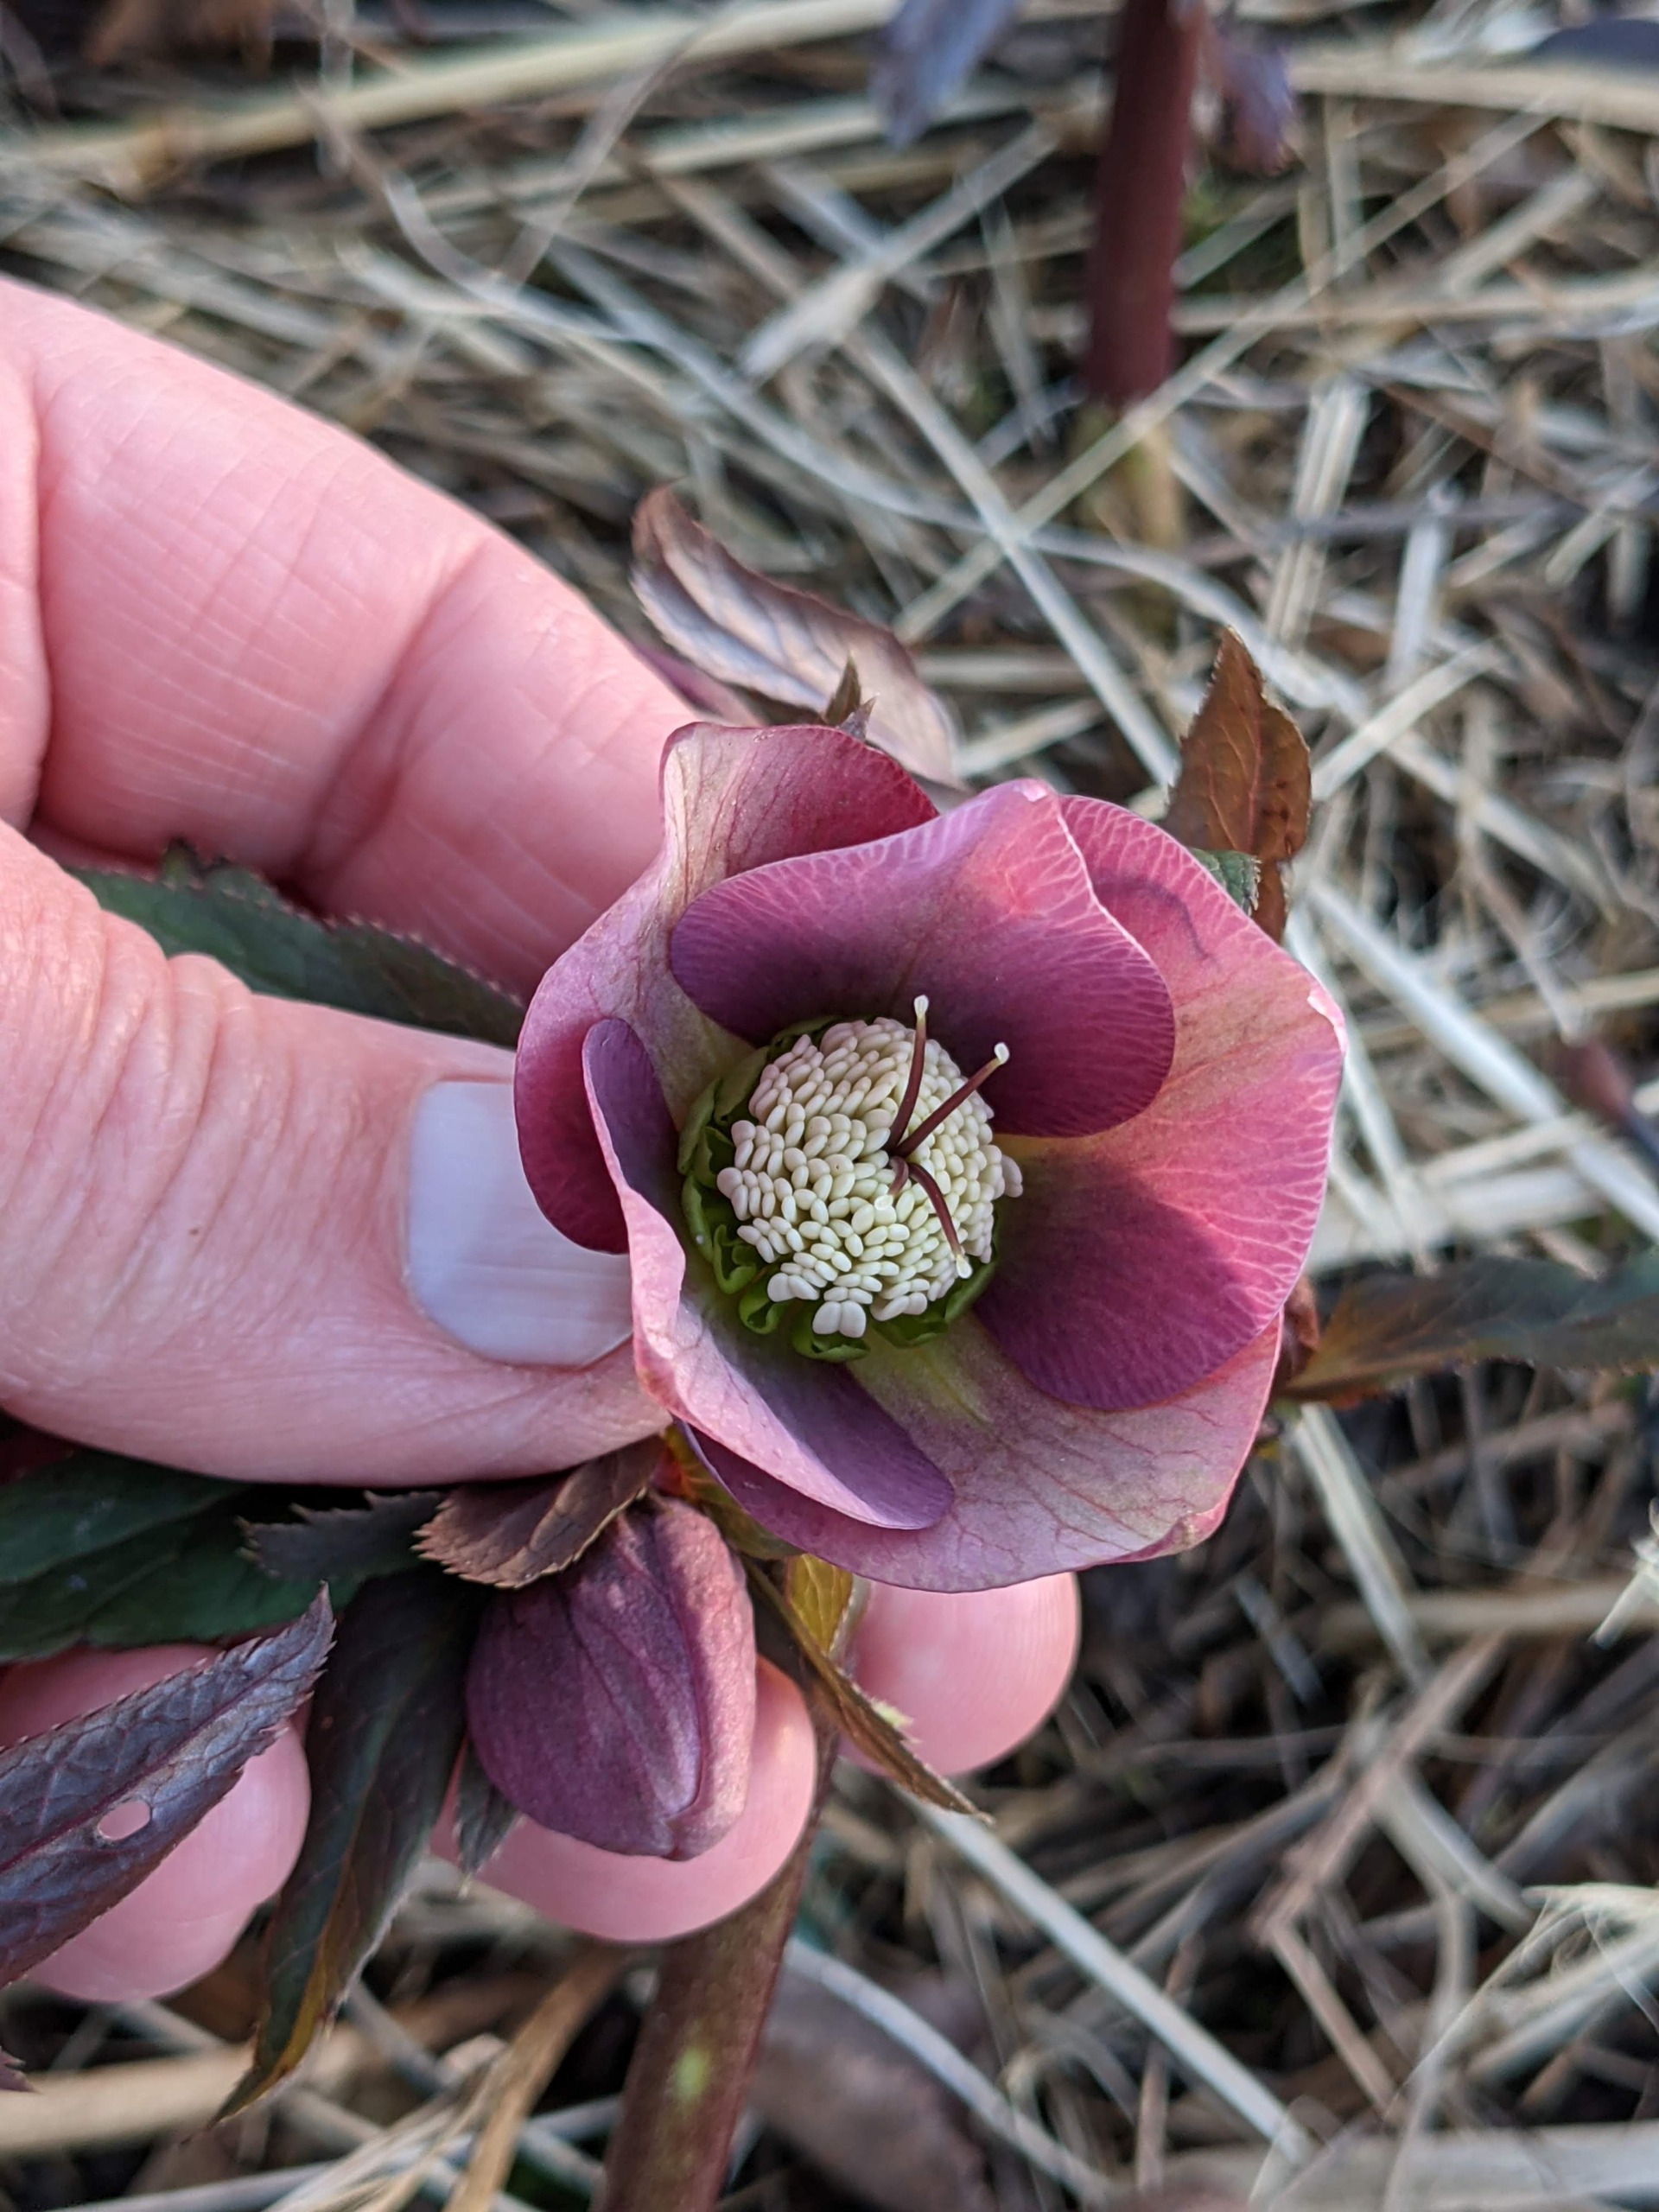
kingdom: Plantae
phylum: Tracheophyta
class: Magnoliopsida
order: Ranunculales
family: Ranunculaceae
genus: Helleborus
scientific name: Helleborus orientalis
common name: Rød julerose
